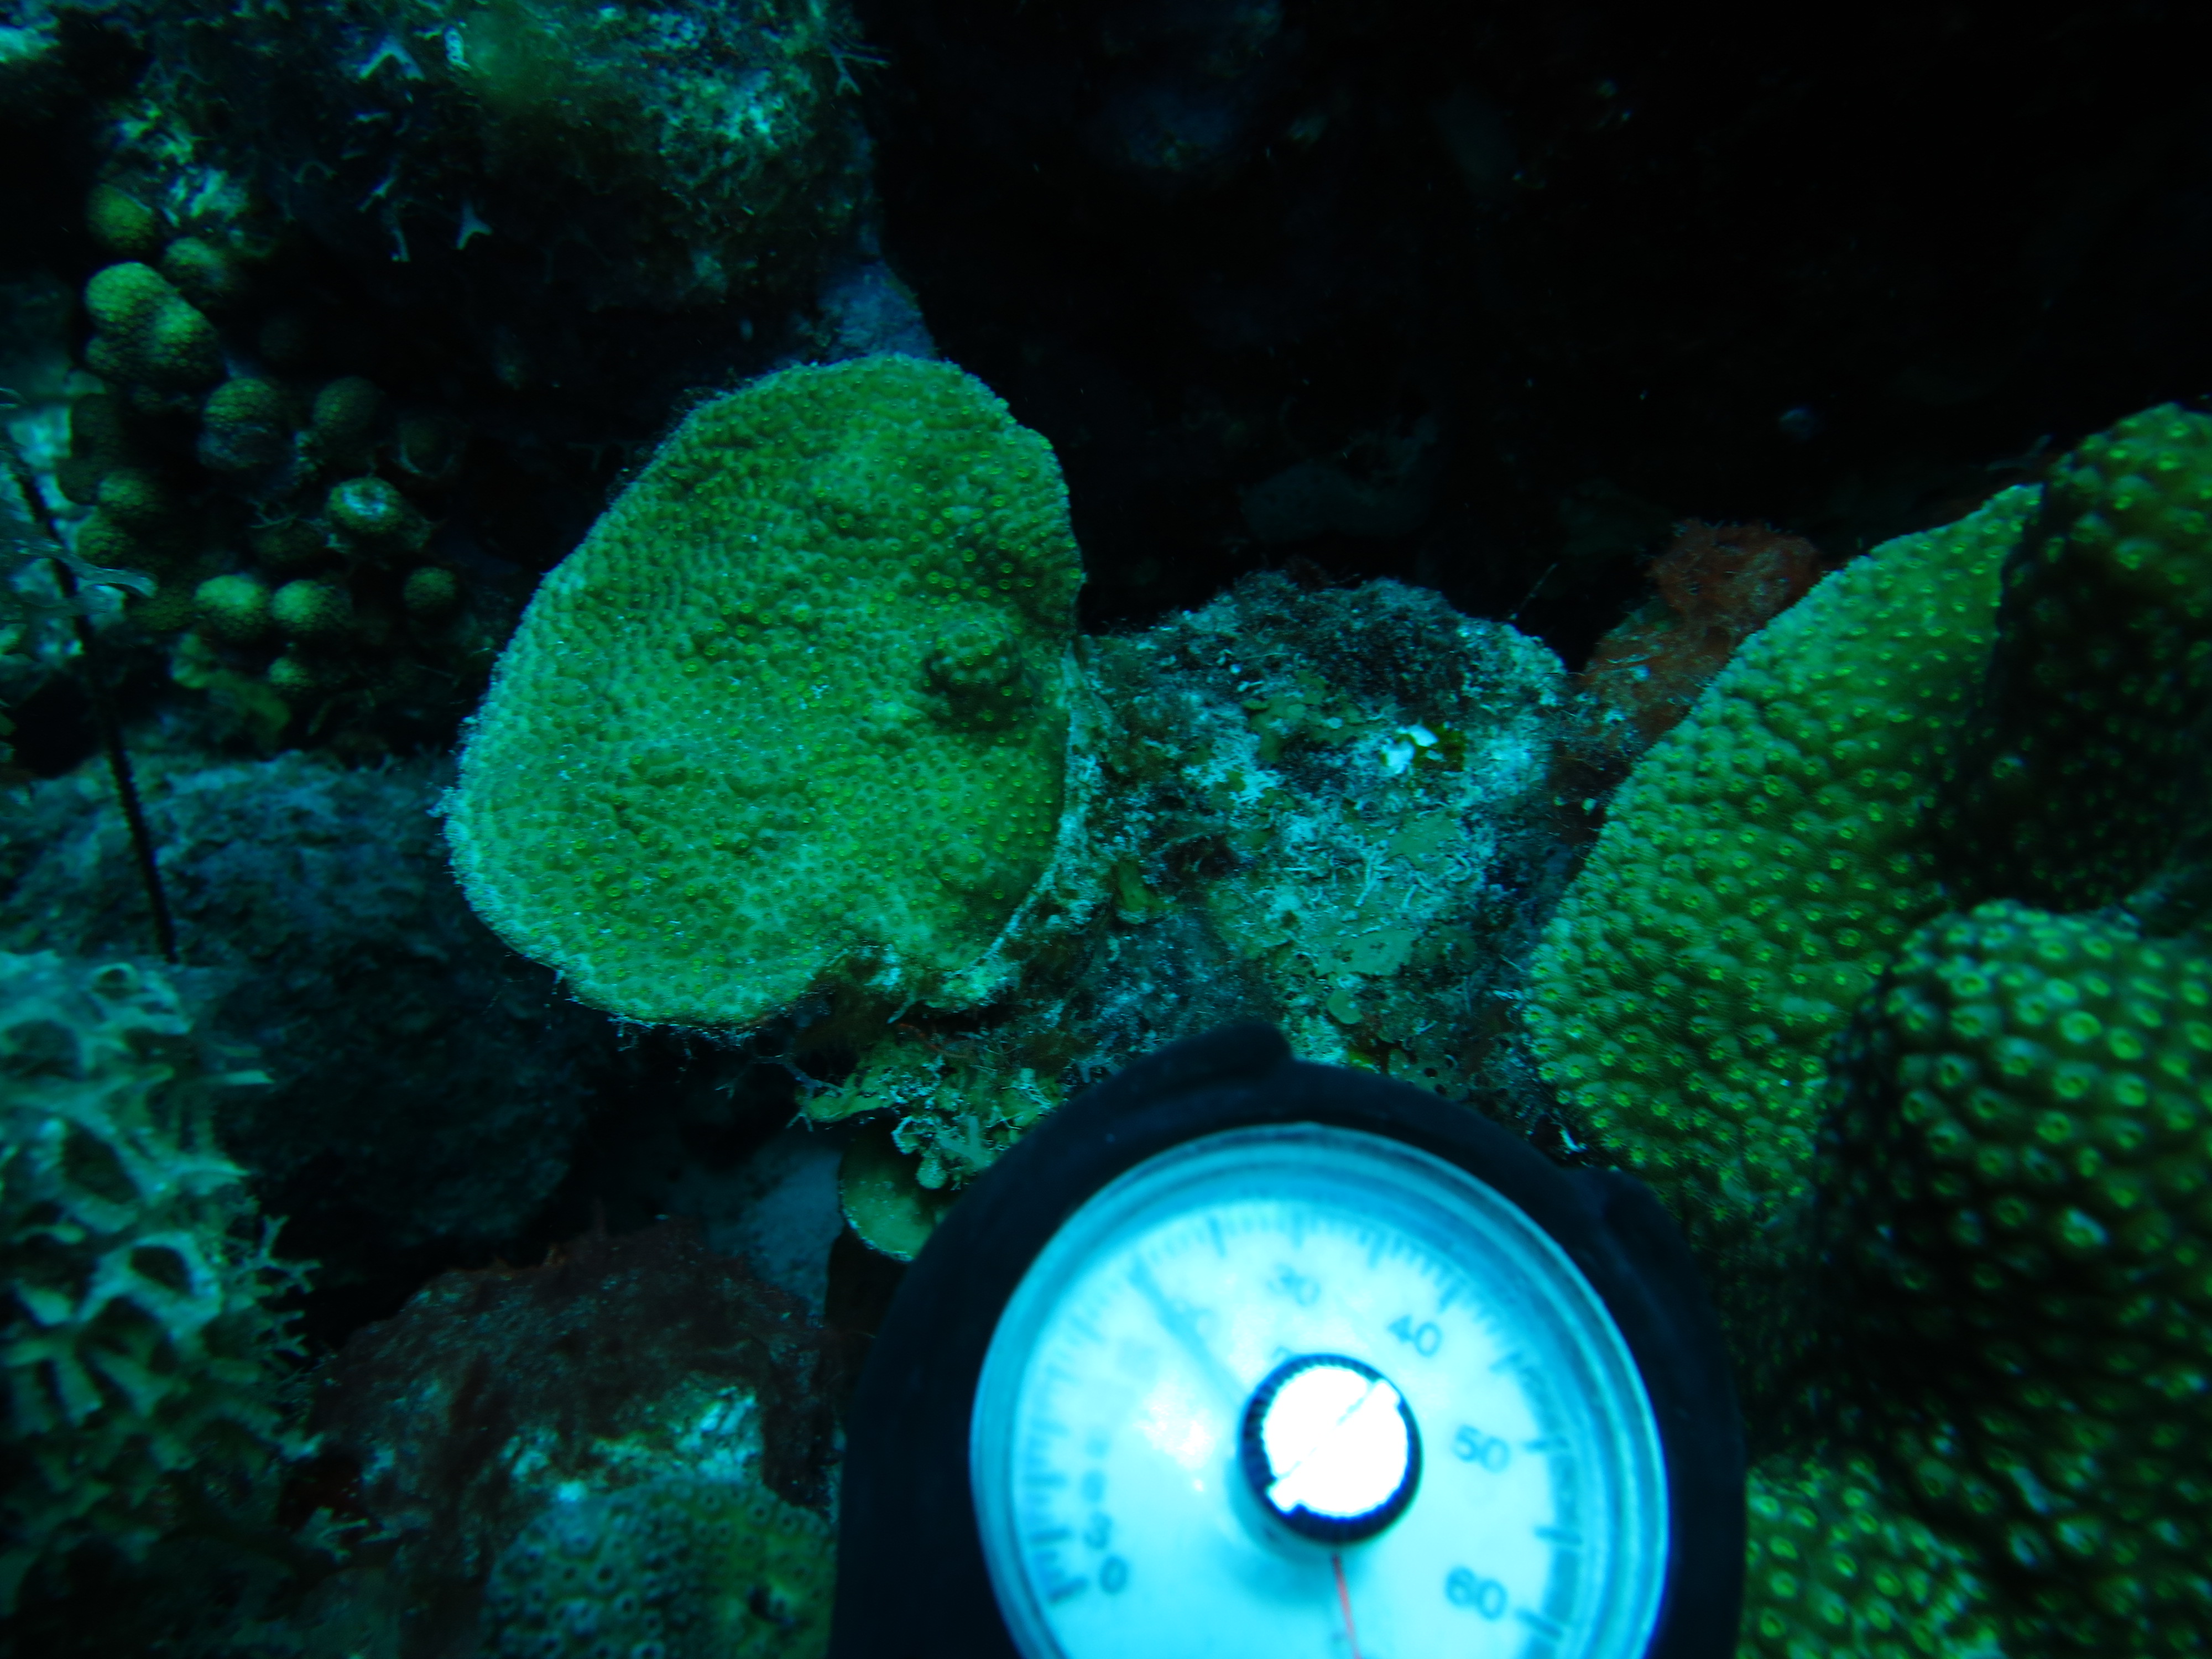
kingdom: Animalia
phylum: Cnidaria
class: Anthozoa
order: Scleractinia
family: Merulinidae
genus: Orbicella
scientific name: Orbicella faveolata
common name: Mountainous star coral
